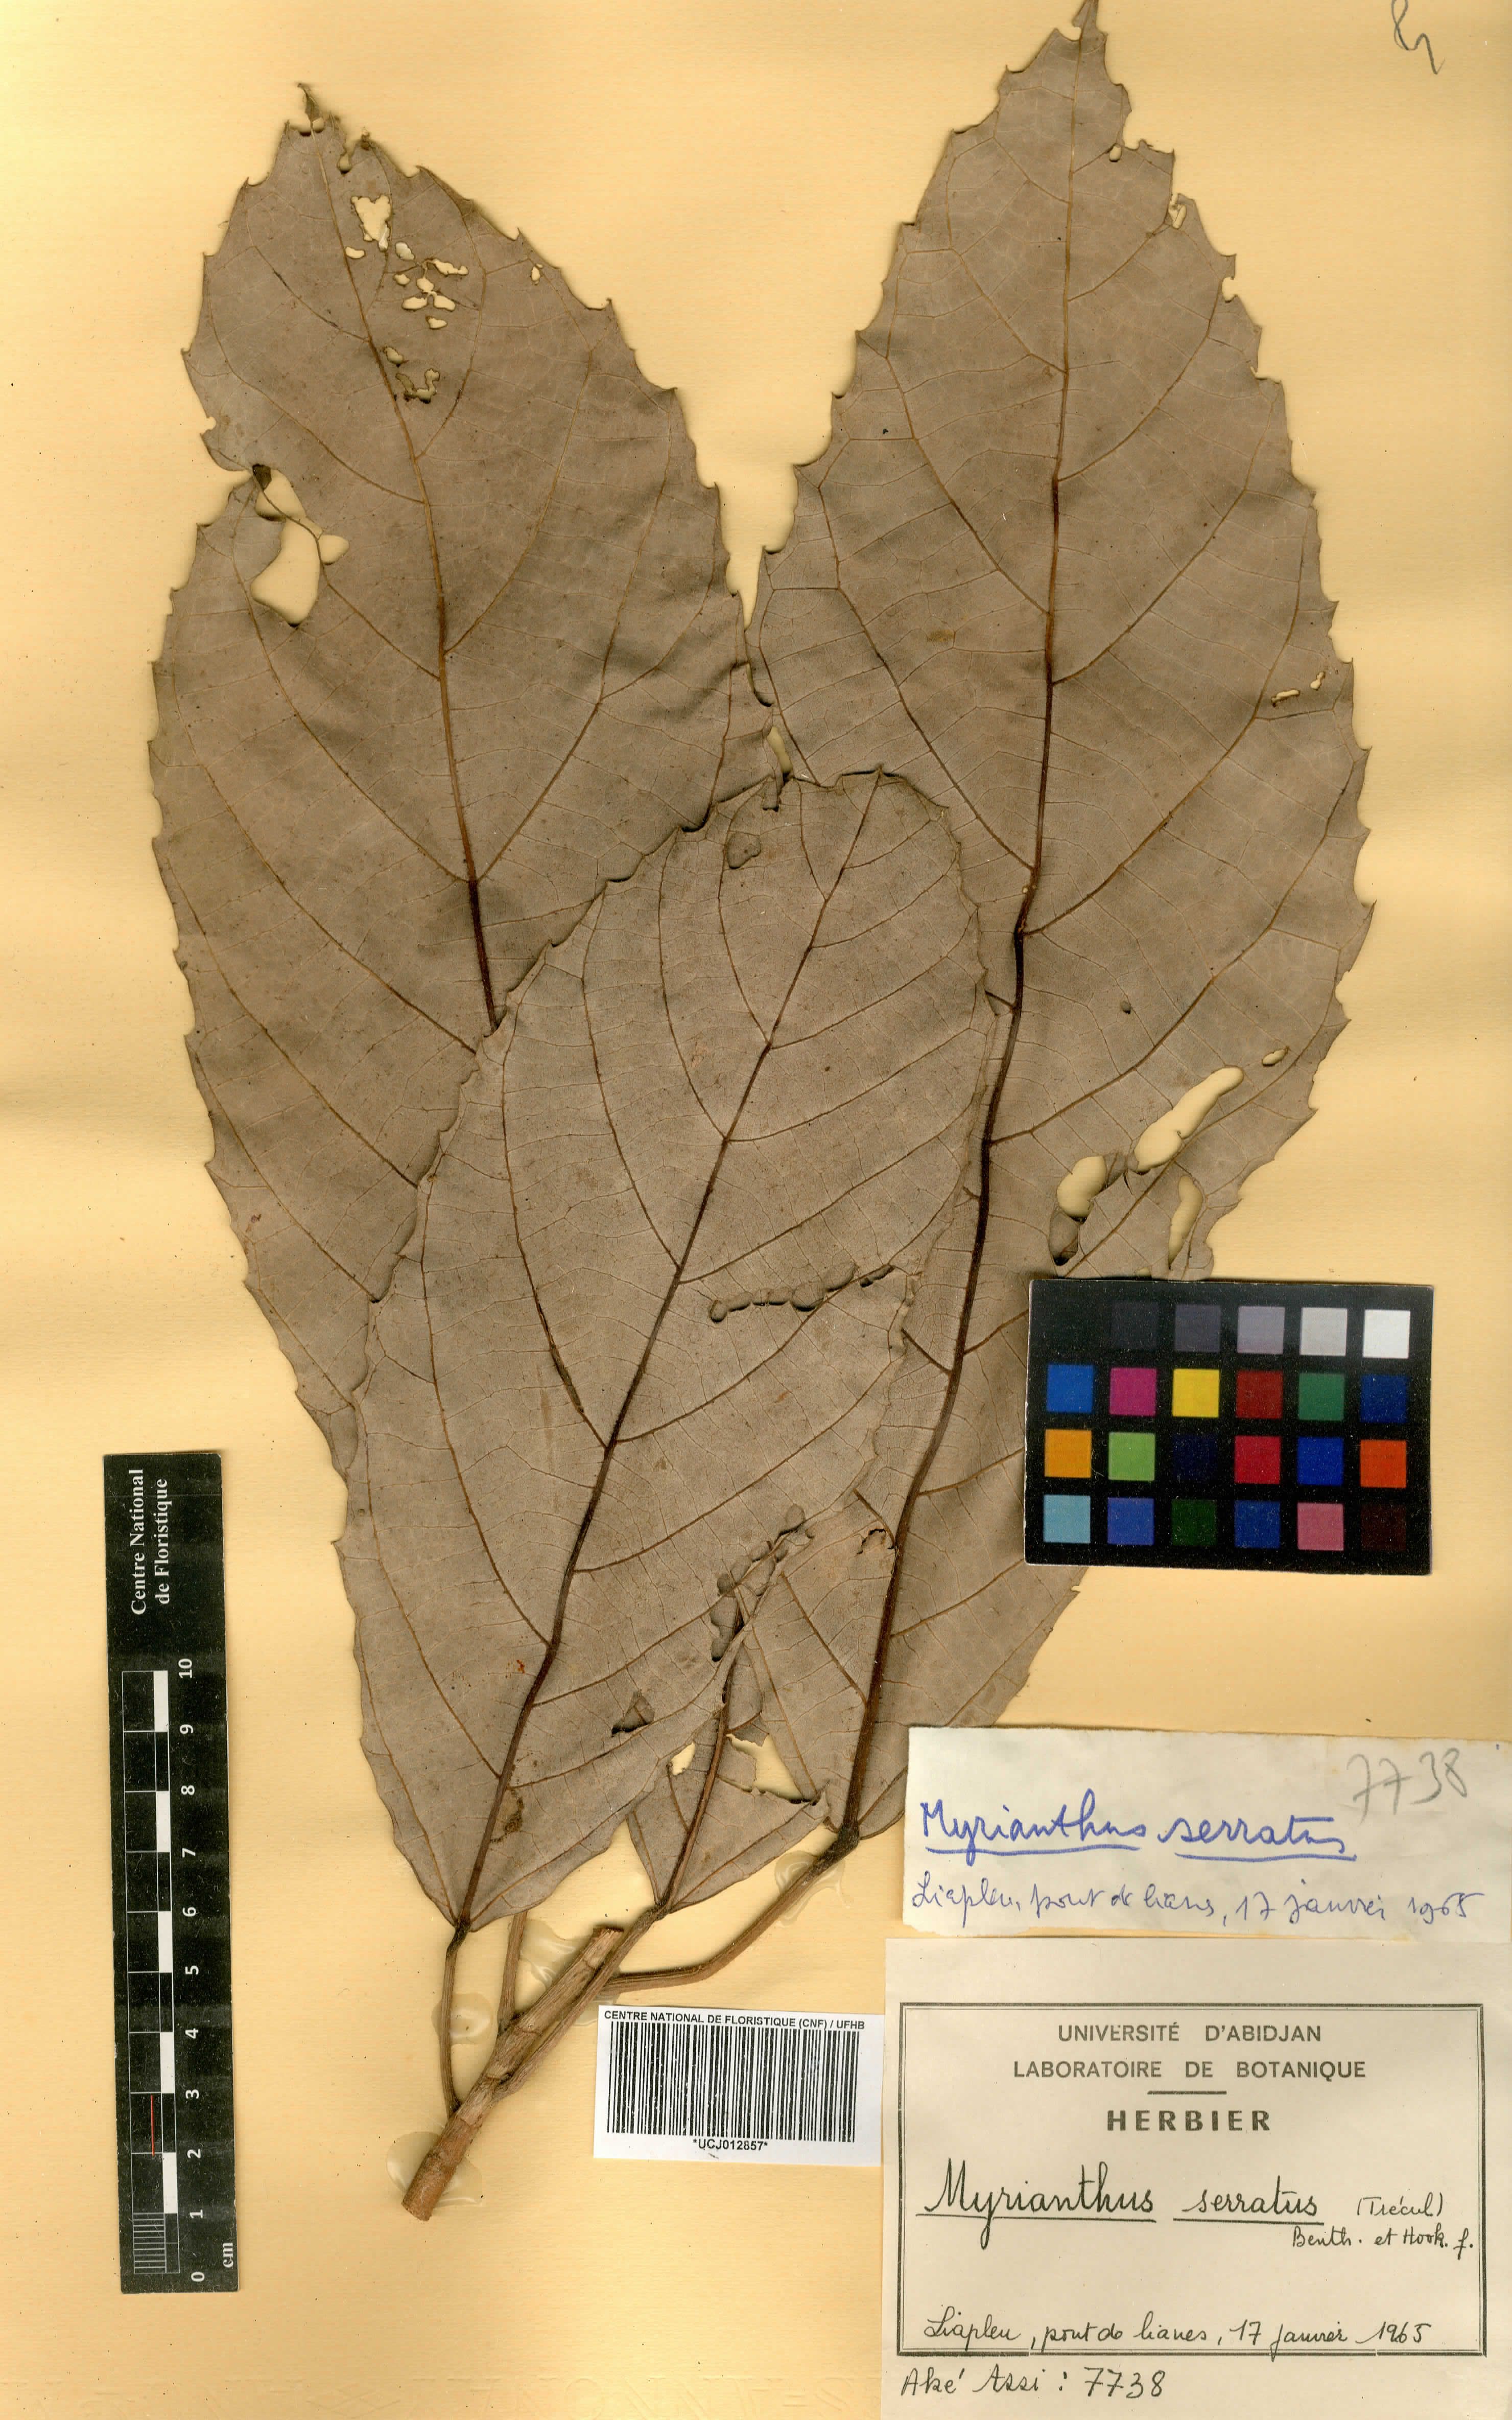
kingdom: Plantae
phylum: Tracheophyta
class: Magnoliopsida
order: Rosales
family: Urticaceae
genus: Myrianthus
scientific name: Myrianthus serratus
